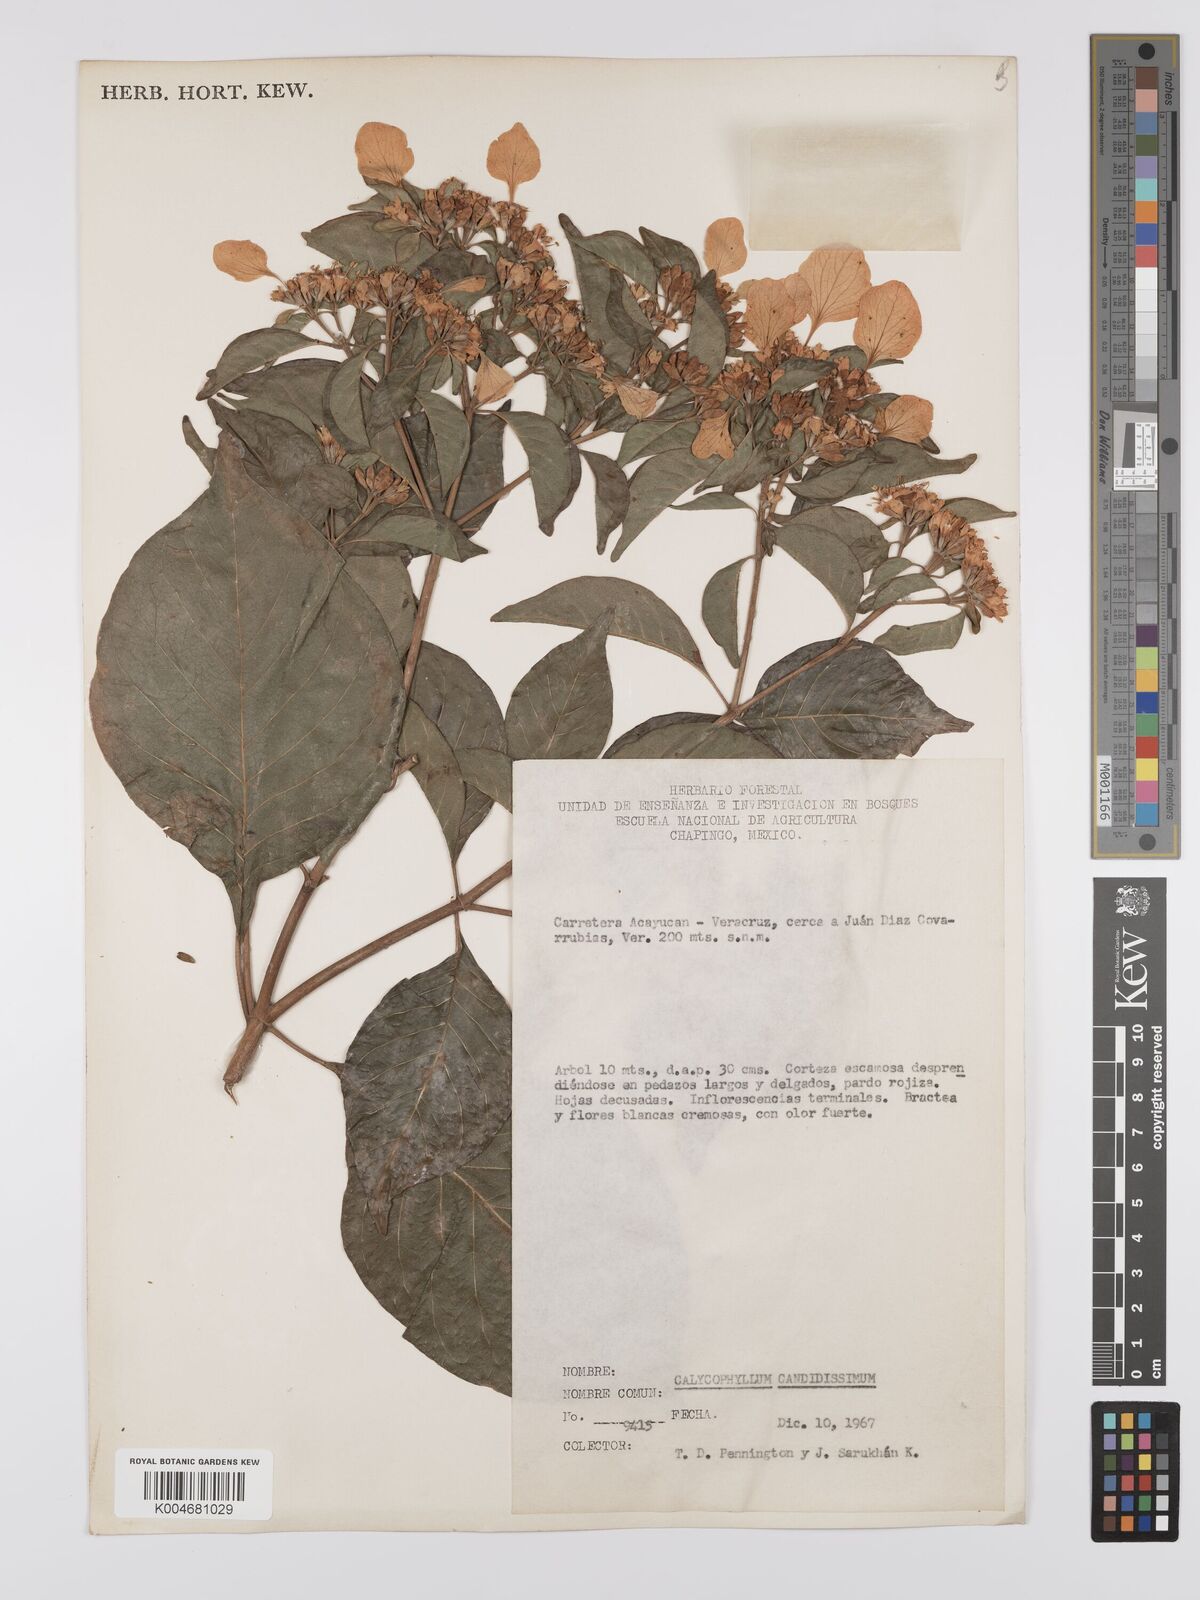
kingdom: Plantae
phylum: Tracheophyta
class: Magnoliopsida
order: Gentianales
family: Rubiaceae
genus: Calycophyllum
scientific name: Calycophyllum candidissimum
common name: Dagame
